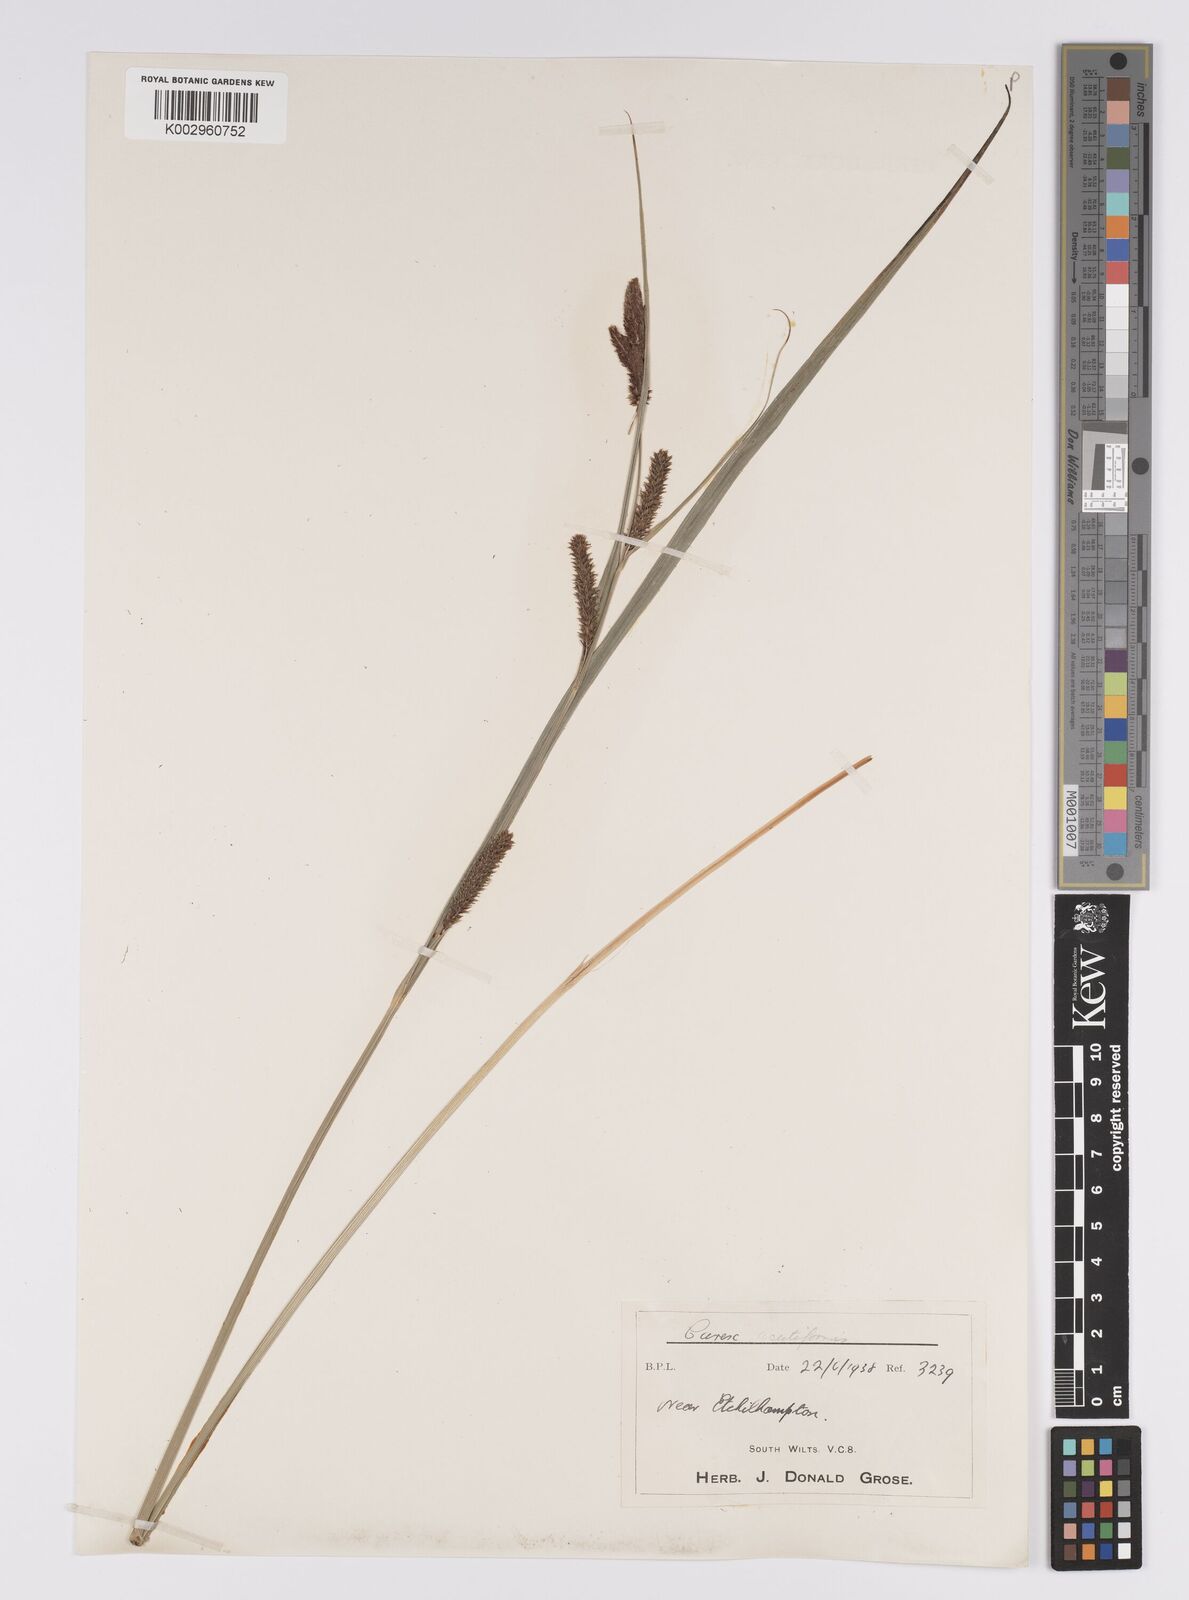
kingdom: Plantae
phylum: Tracheophyta
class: Liliopsida
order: Poales
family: Cyperaceae
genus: Carex
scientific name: Carex acutiformis
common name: Lesser pond-sedge
